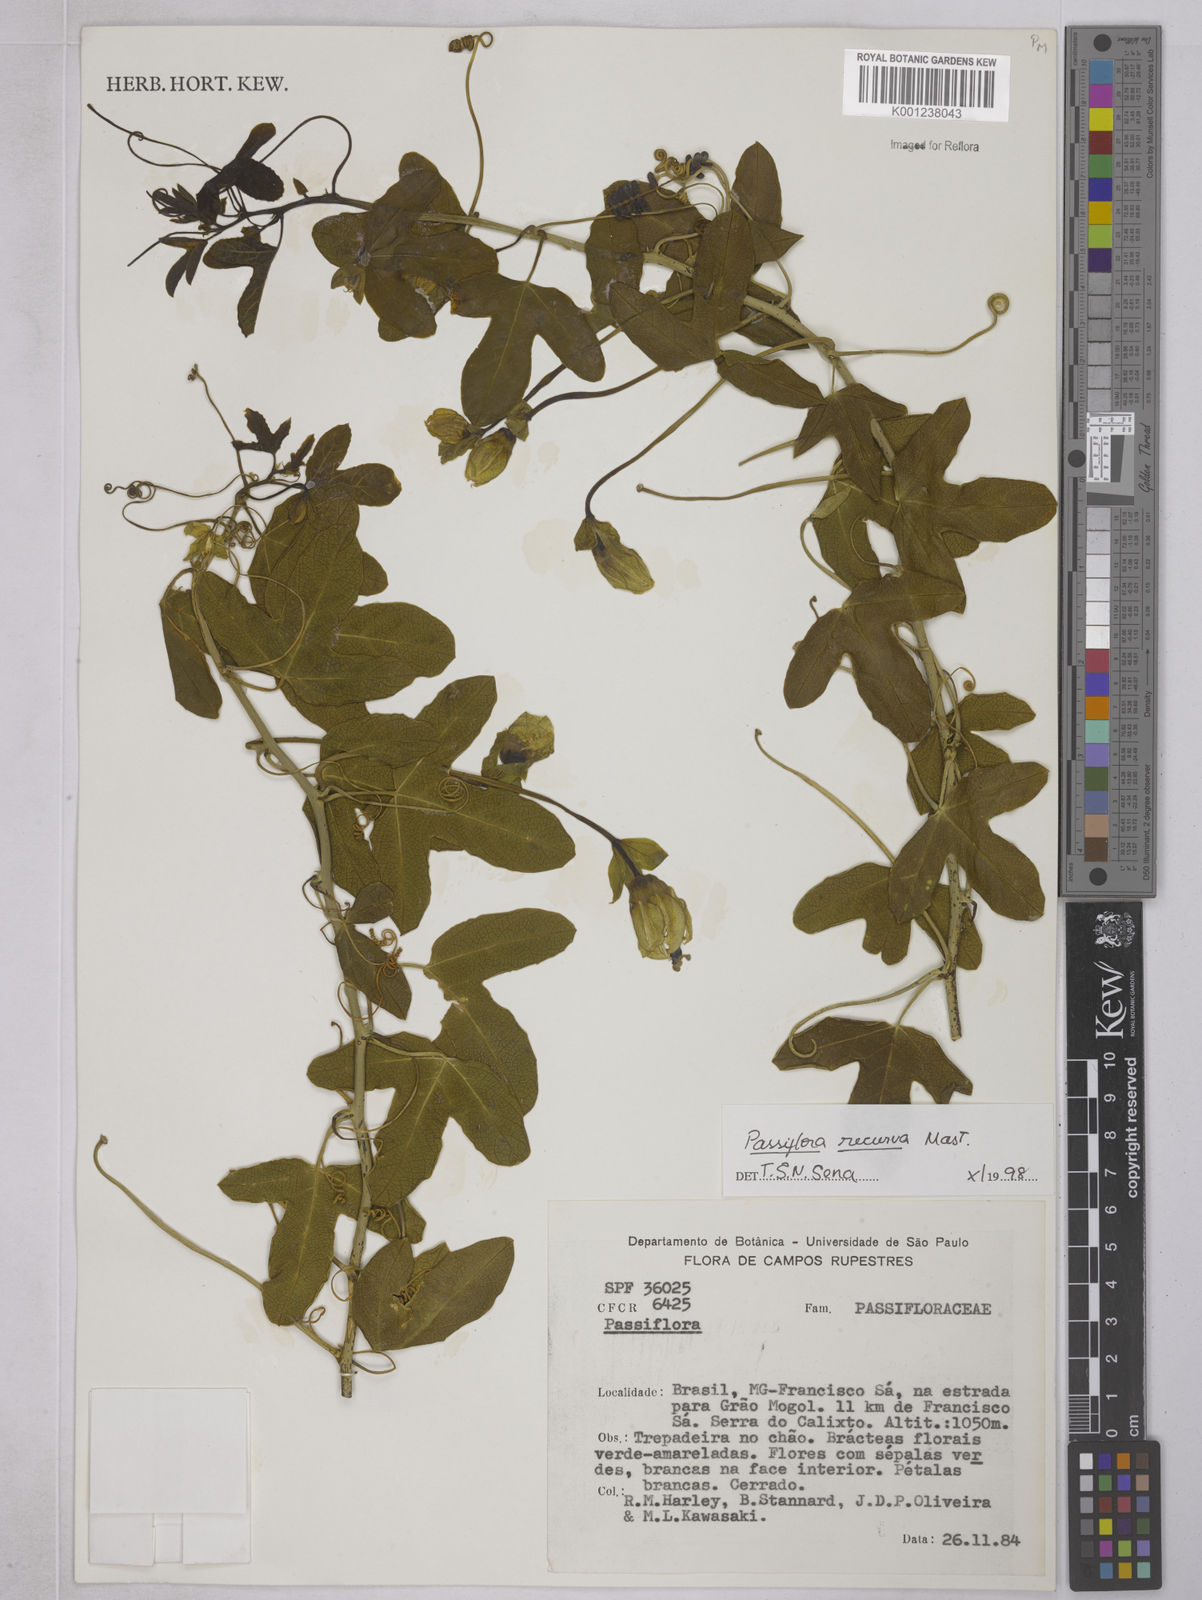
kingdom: Plantae
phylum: Tracheophyta
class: Magnoliopsida
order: Malpighiales
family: Passifloraceae
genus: Passiflora
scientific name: Passiflora recurva
